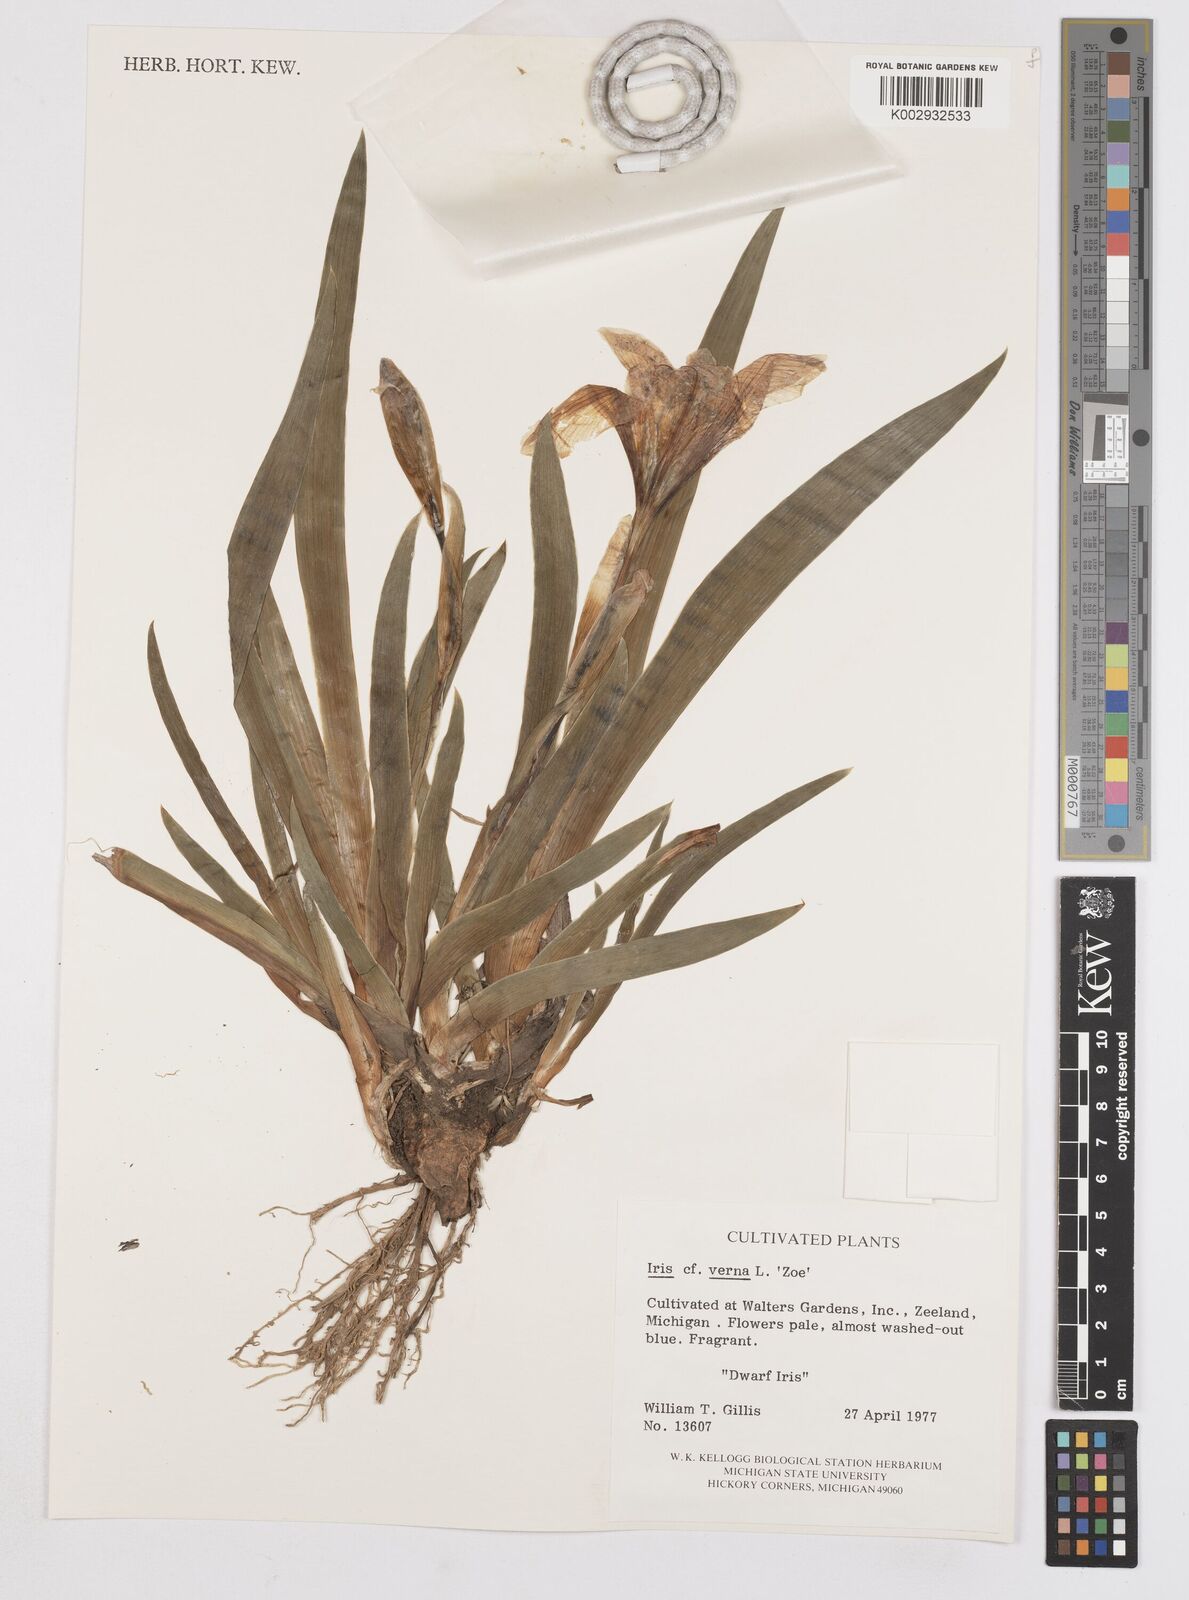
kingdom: Plantae
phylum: Tracheophyta
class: Liliopsida
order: Asparagales
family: Iridaceae
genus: Iris
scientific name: Iris verna
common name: Dwarf iris
